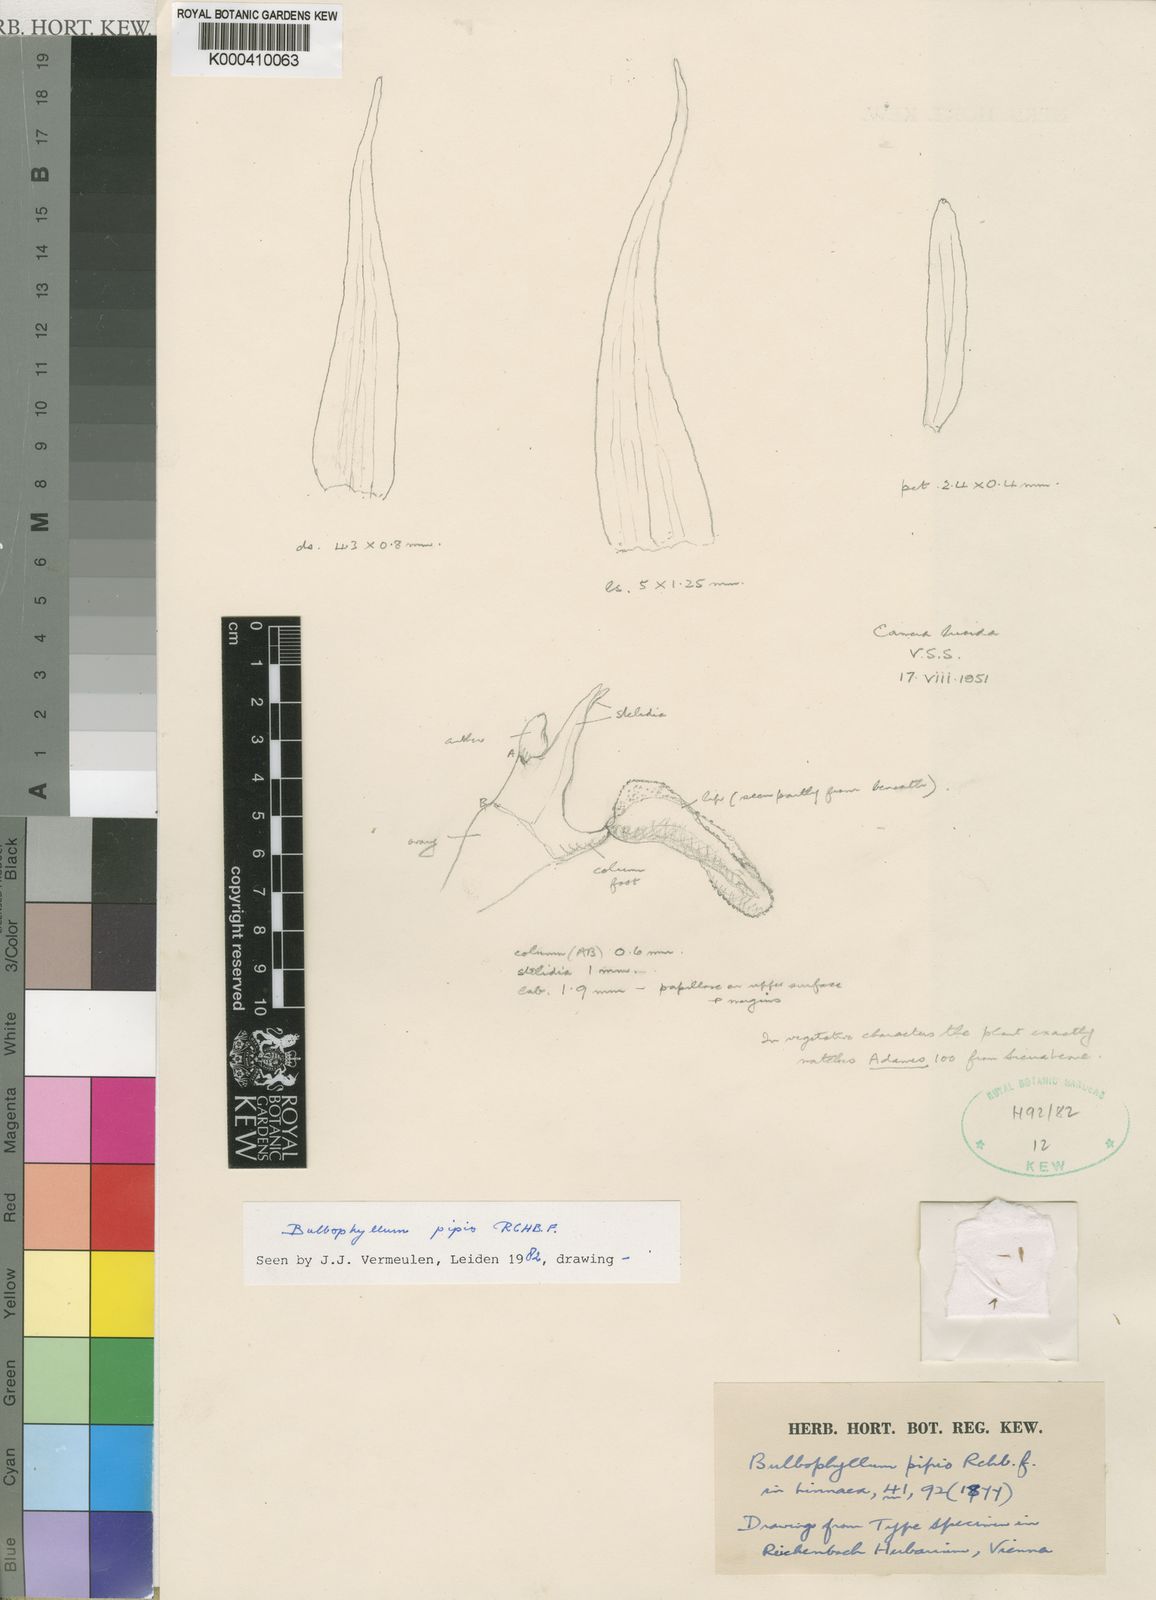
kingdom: Plantae
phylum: Tracheophyta
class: Liliopsida
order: Asparagales
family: Orchidaceae
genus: Bulbophyllum
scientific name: Bulbophyllum pipio
